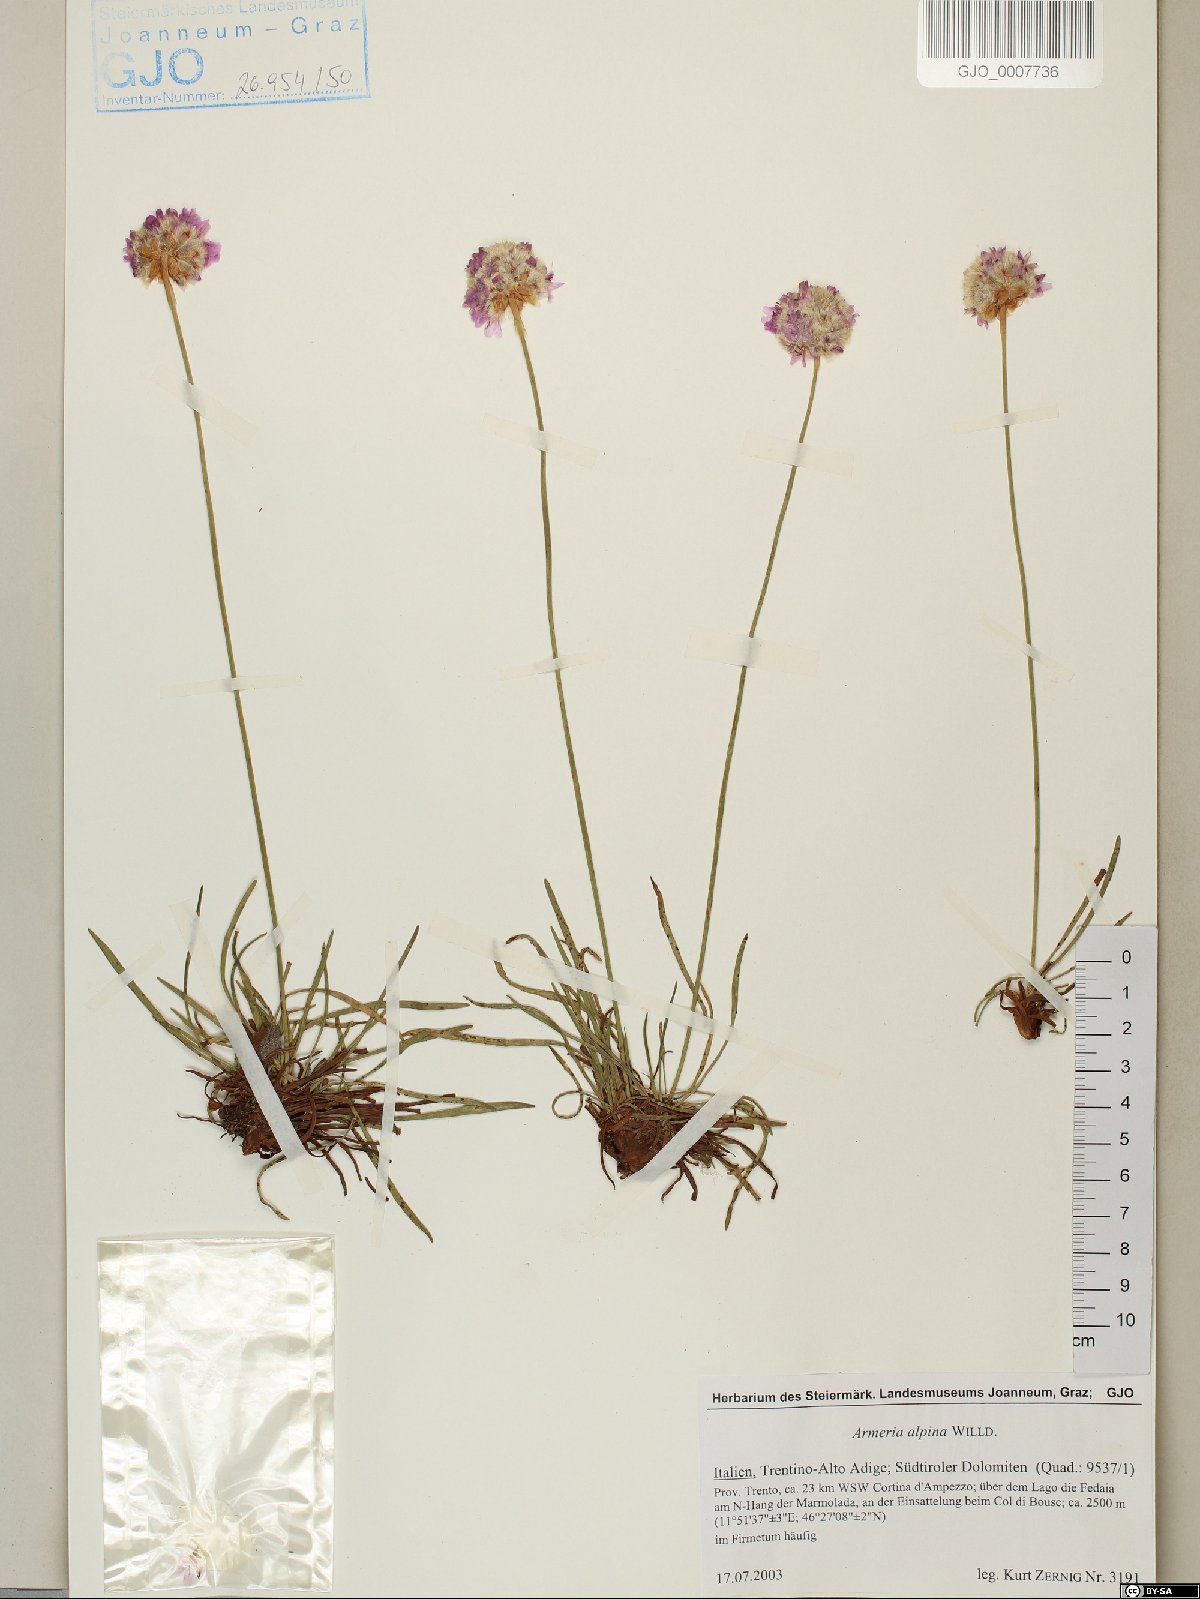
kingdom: Plantae
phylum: Tracheophyta
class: Magnoliopsida
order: Caryophyllales
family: Plumbaginaceae
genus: Armeria
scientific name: Armeria alpina
